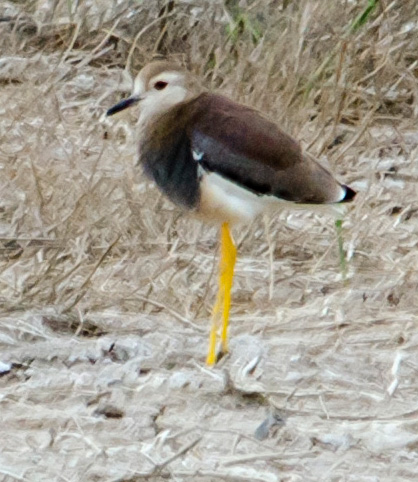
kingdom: Animalia
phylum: Chordata
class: Aves
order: Charadriiformes
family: Charadriidae
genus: Vanellus
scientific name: Vanellus leucurus
